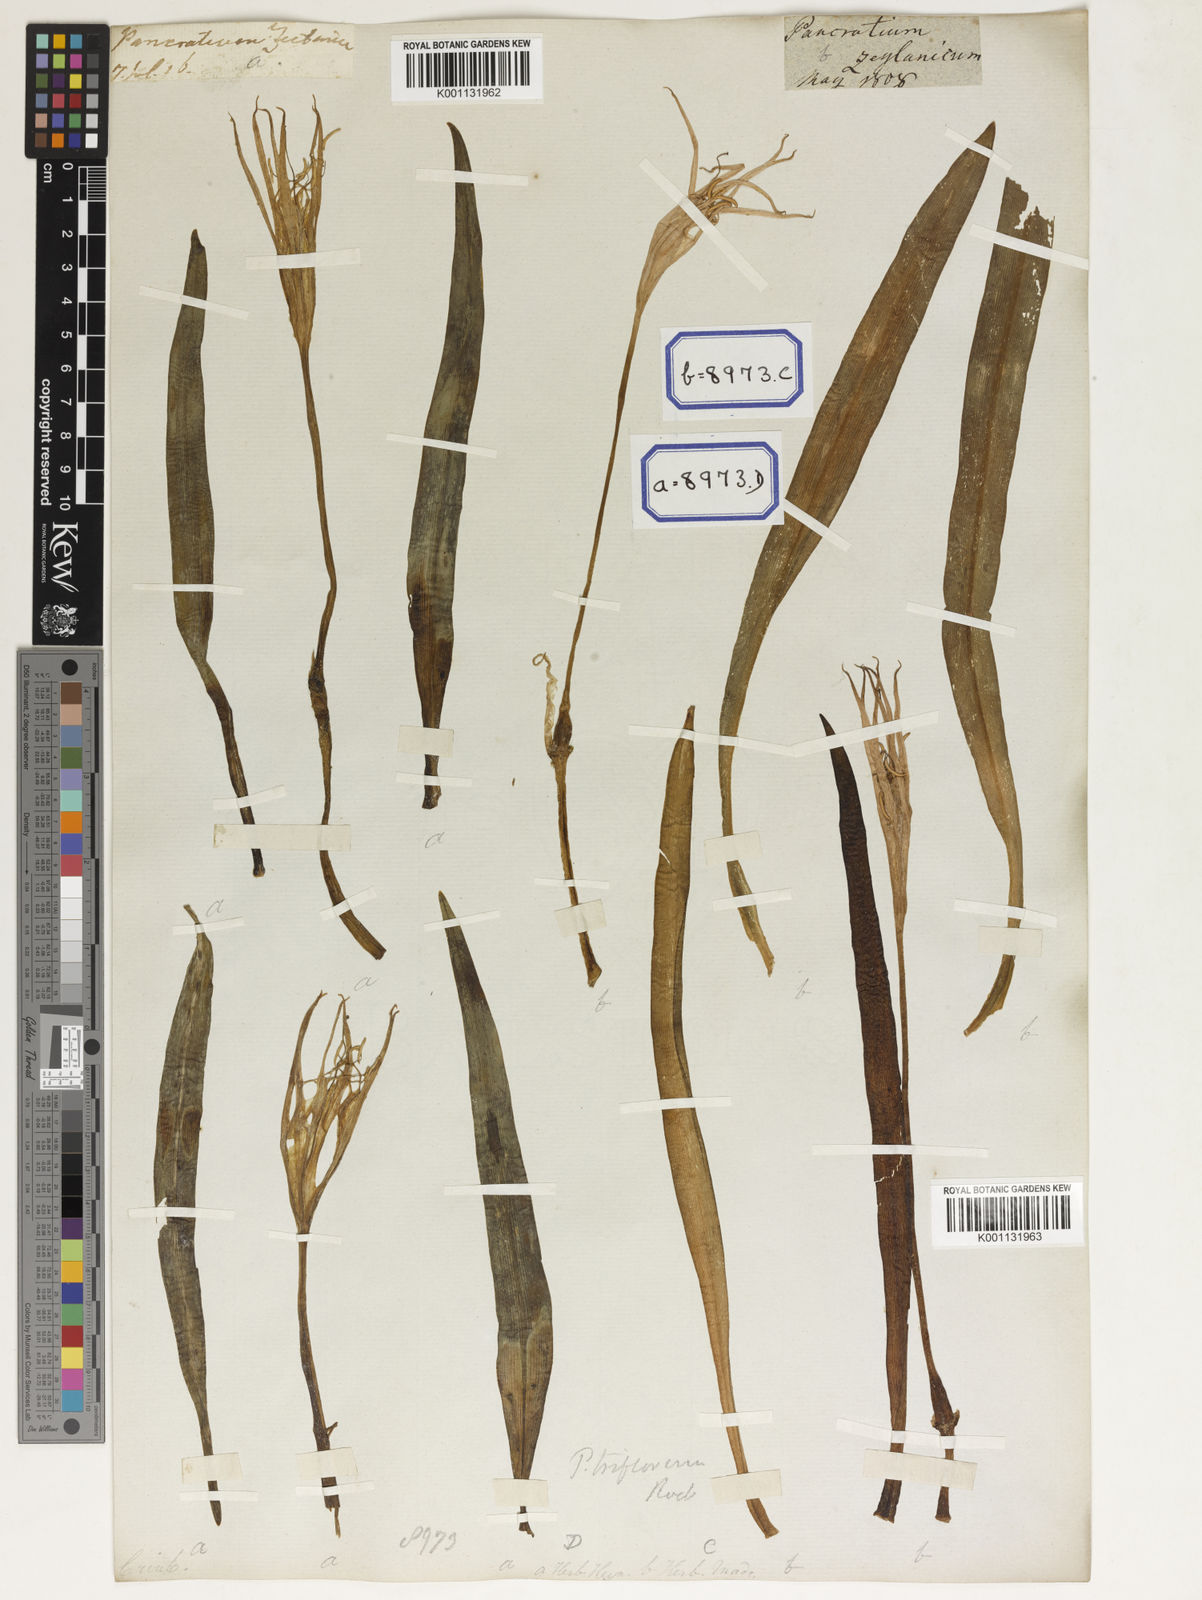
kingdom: Plantae
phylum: Tracheophyta
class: Liliopsida
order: Asparagales
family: Amaryllidaceae
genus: Pancratium
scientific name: Pancratium zeylanicum
